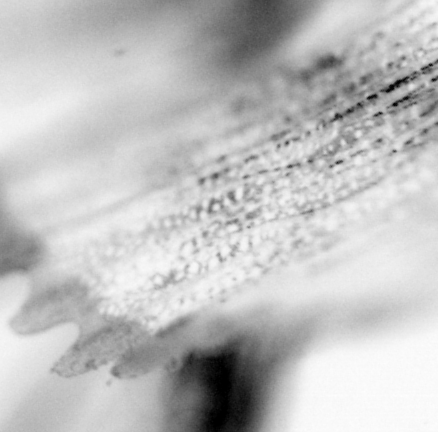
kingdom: Animalia
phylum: Chordata
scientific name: Chordata
